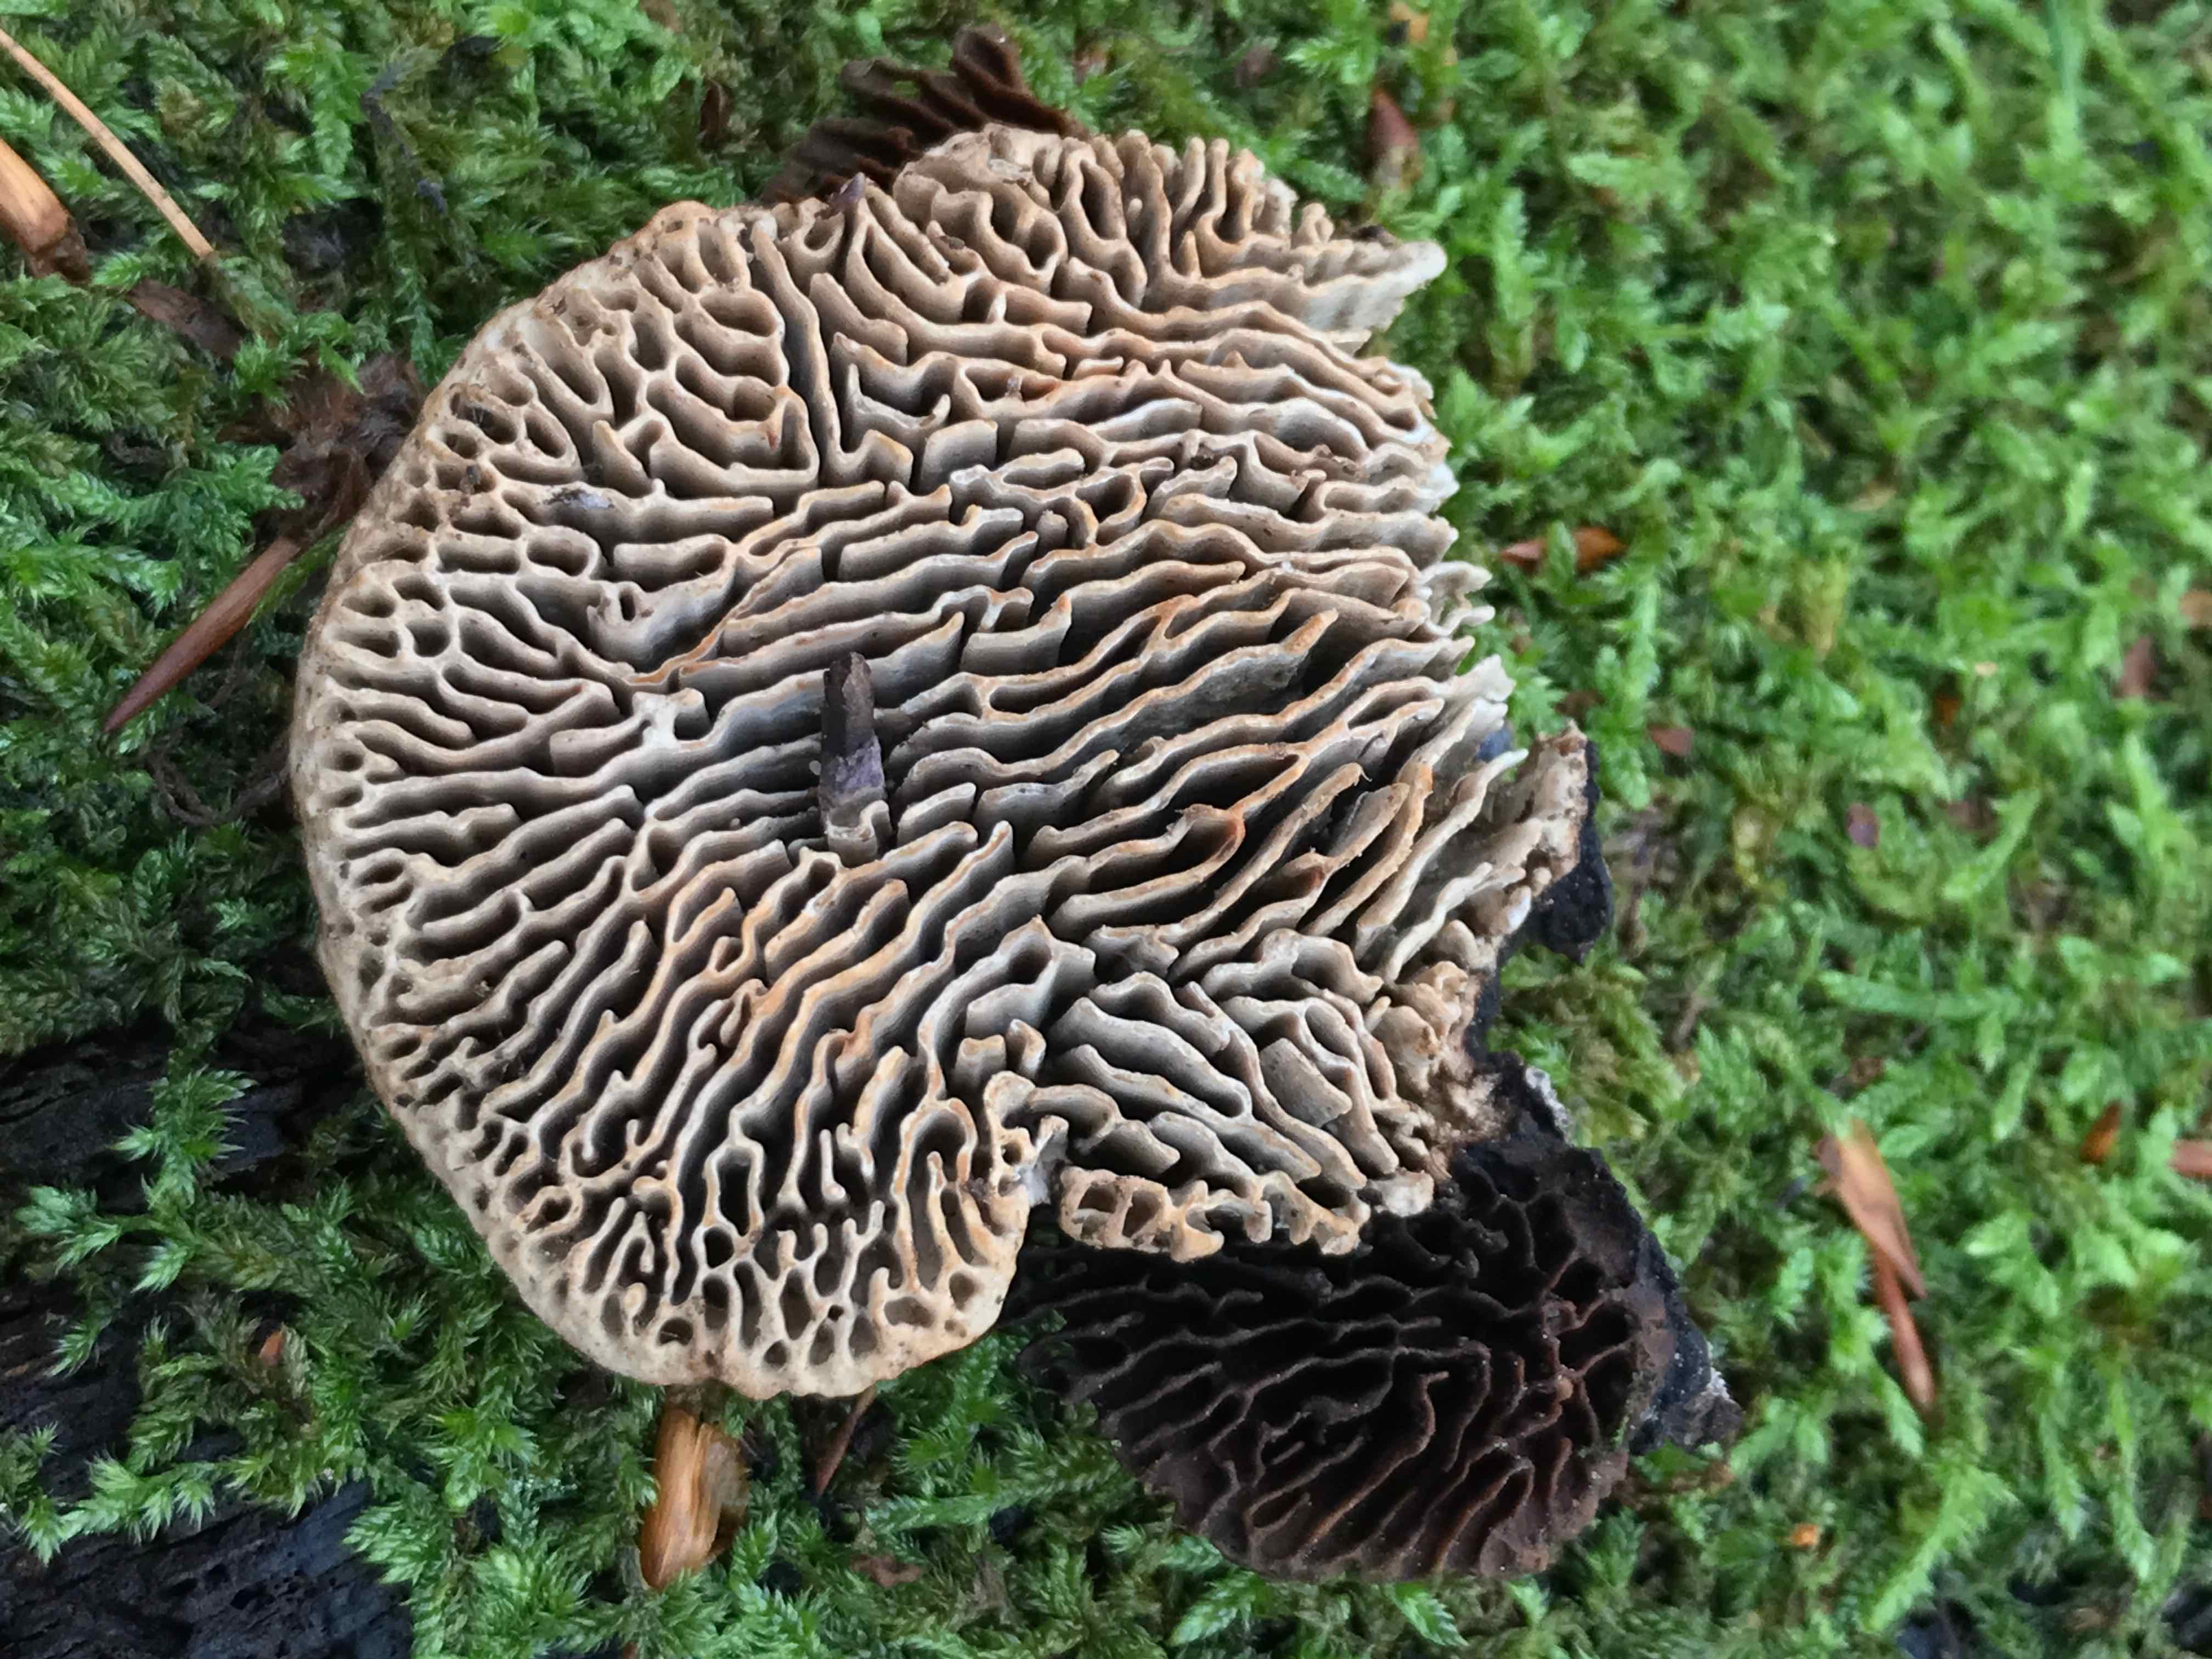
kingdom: Fungi
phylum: Basidiomycota
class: Agaricomycetes
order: Polyporales
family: Fomitopsidaceae
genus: Daedalea
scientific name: Daedalea quercina
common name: ege-labyrintsvamp
